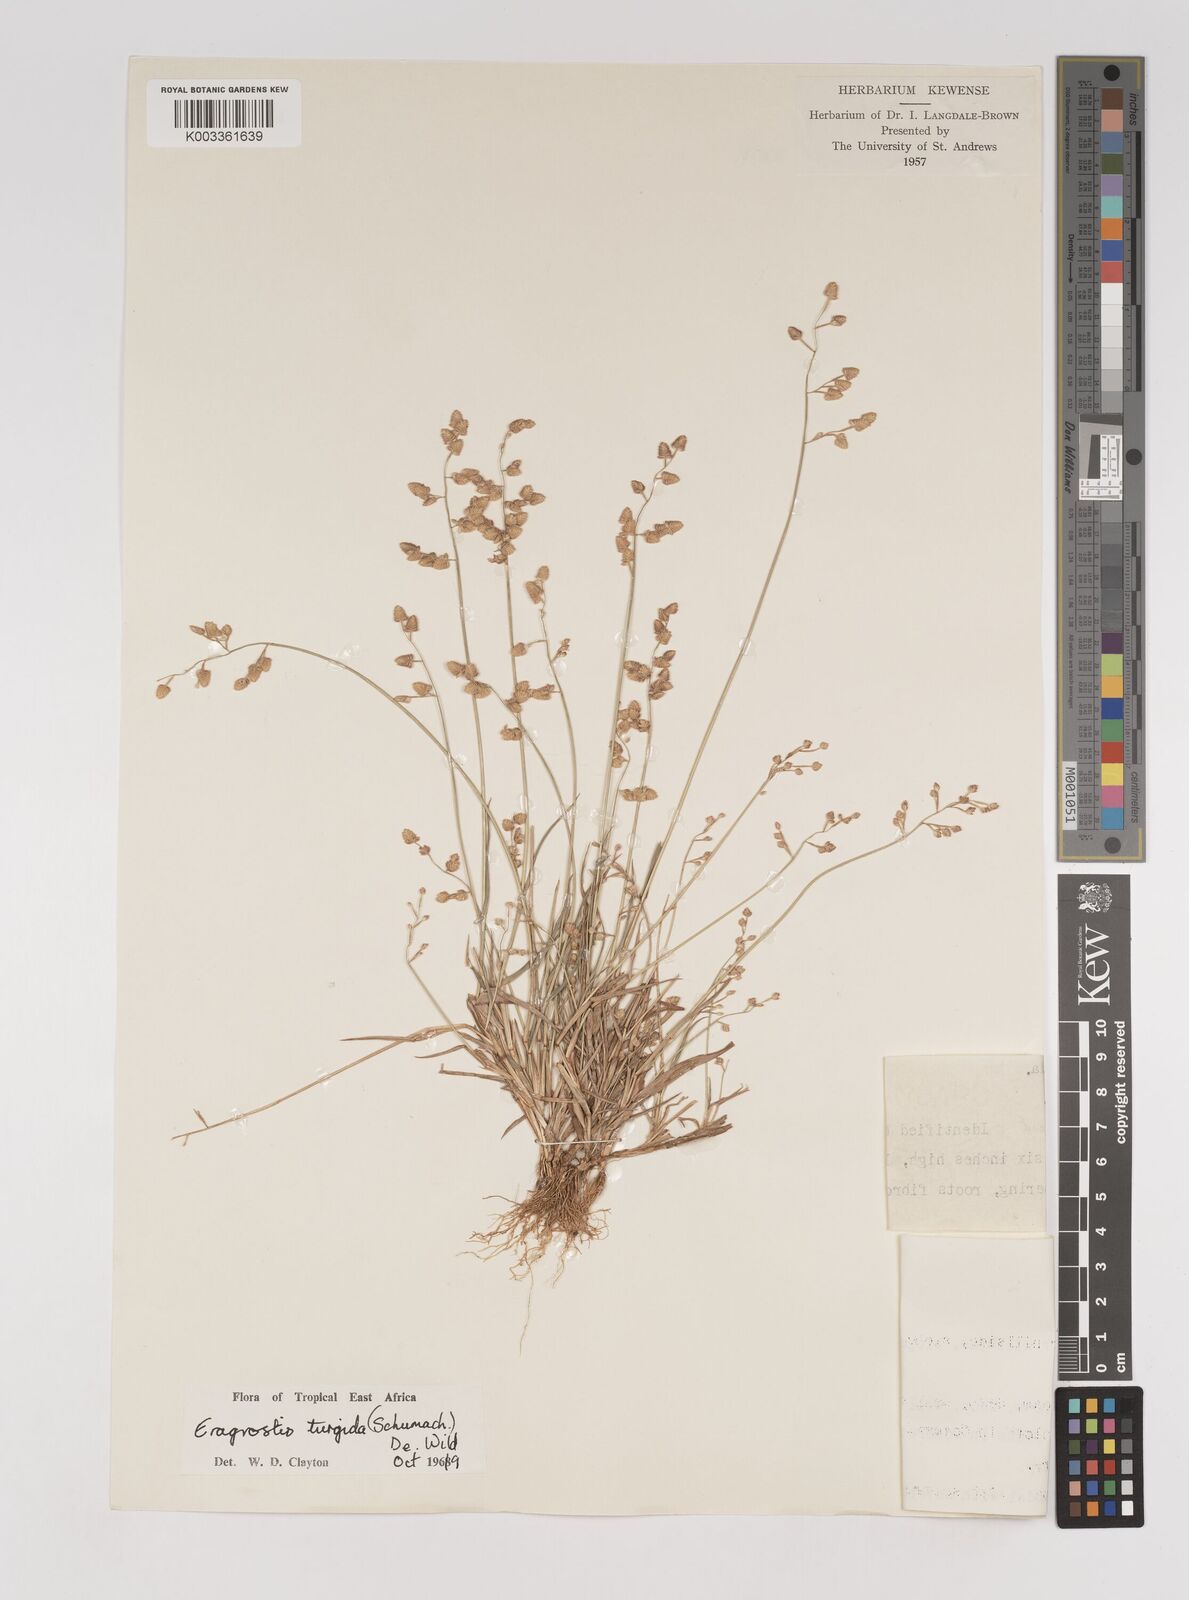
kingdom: Plantae
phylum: Tracheophyta
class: Liliopsida
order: Poales
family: Poaceae
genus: Eragrostis
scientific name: Eragrostis turgida
